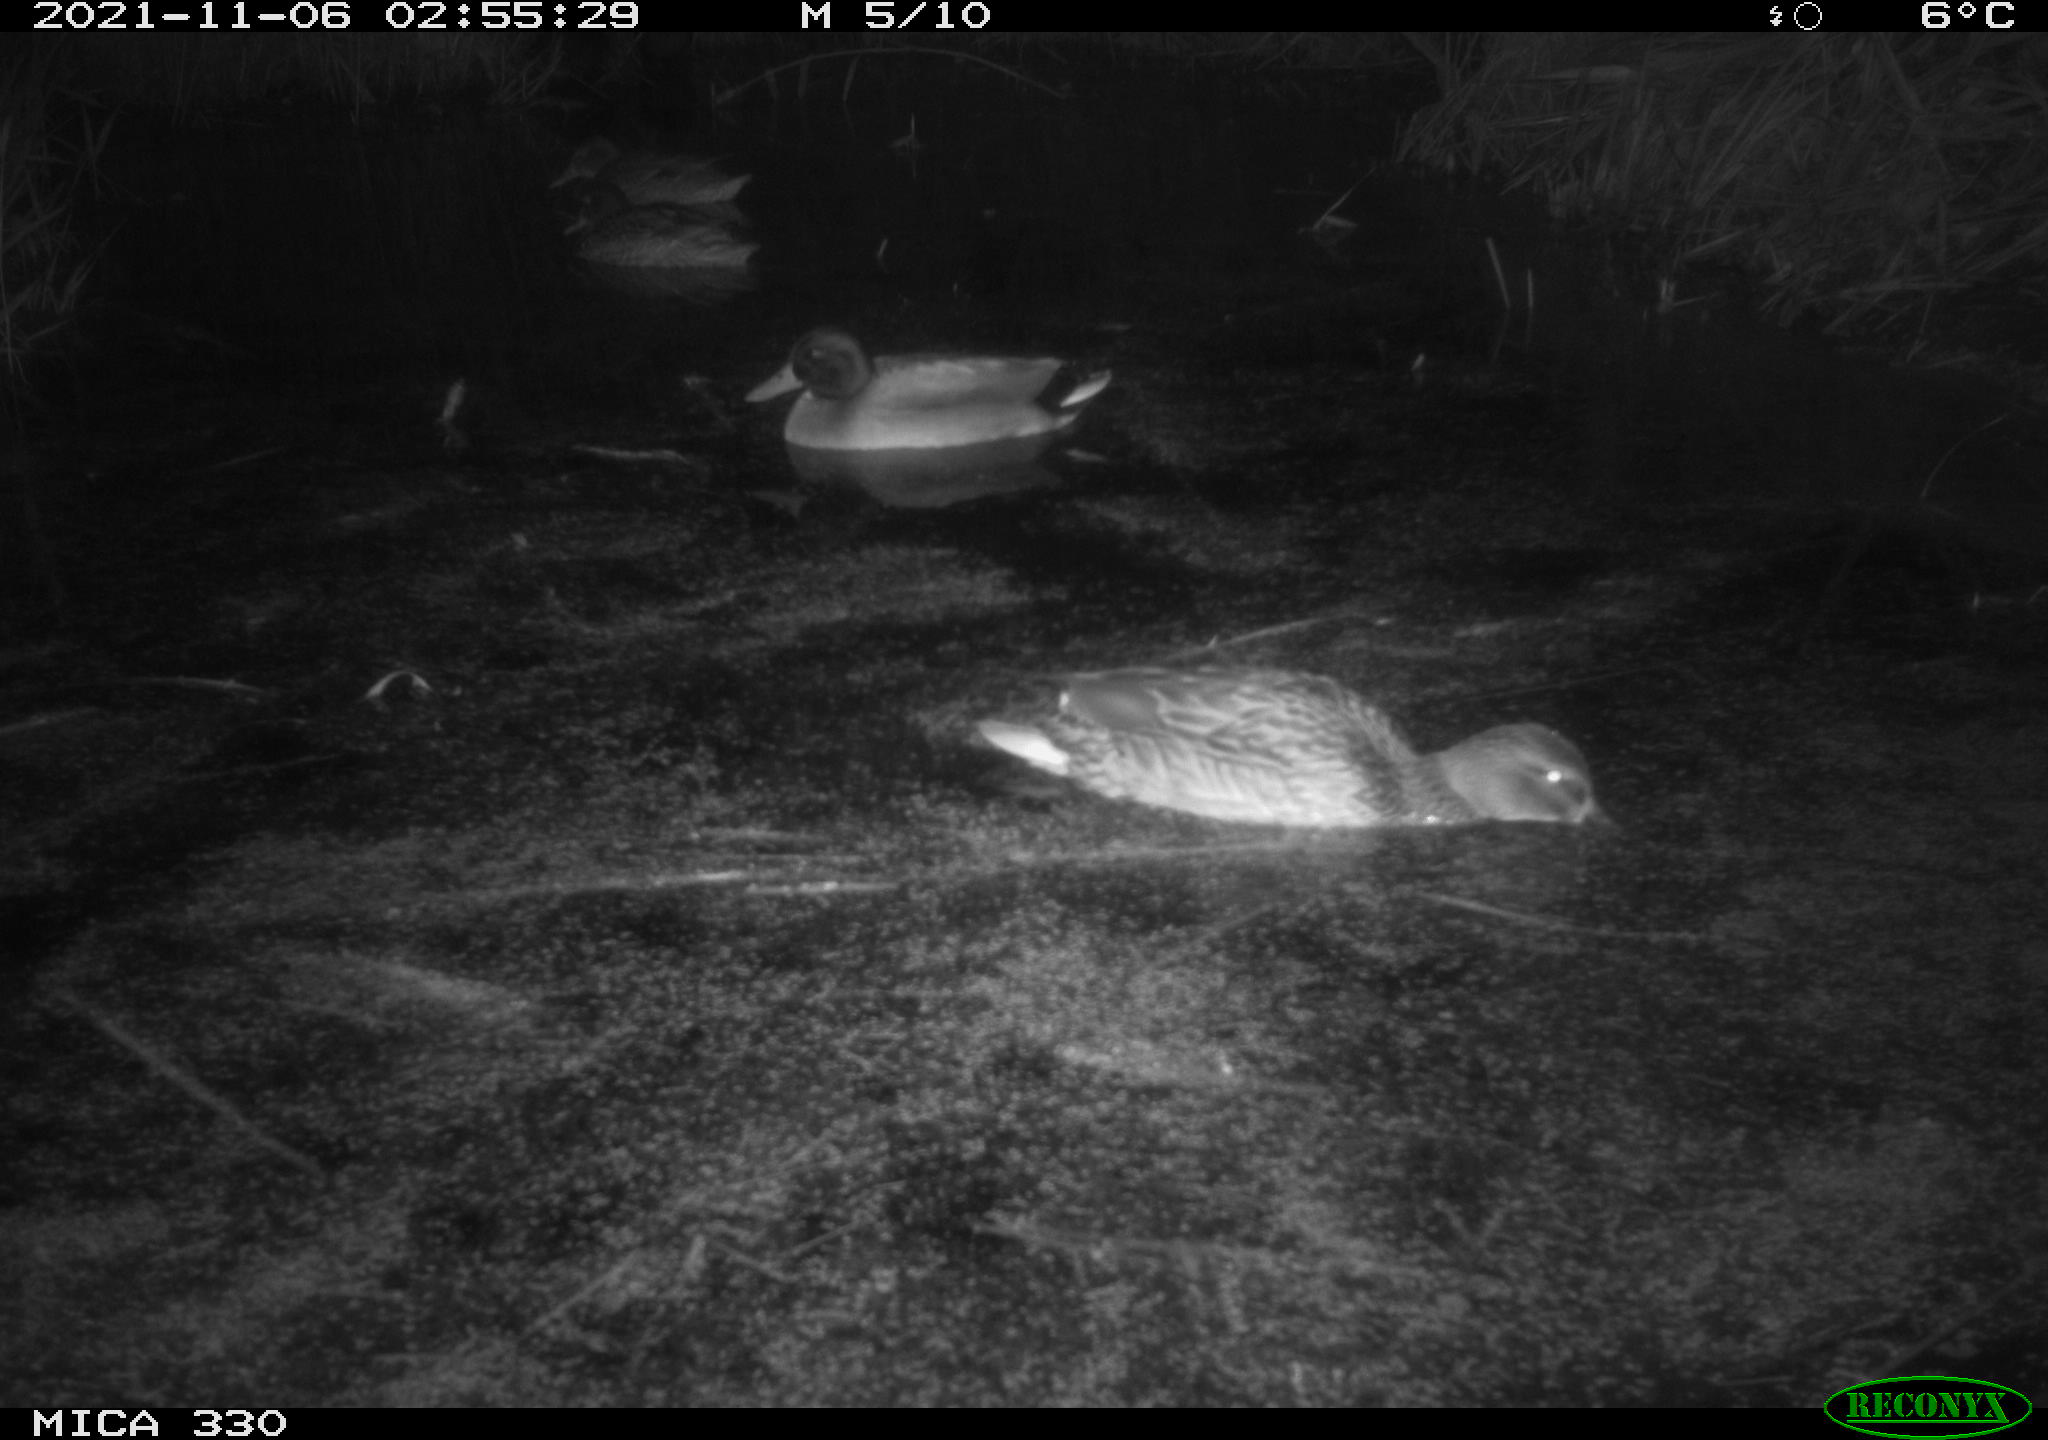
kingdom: Animalia
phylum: Chordata
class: Aves
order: Anseriformes
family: Anatidae
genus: Anas
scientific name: Anas platyrhynchos
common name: Mallard
